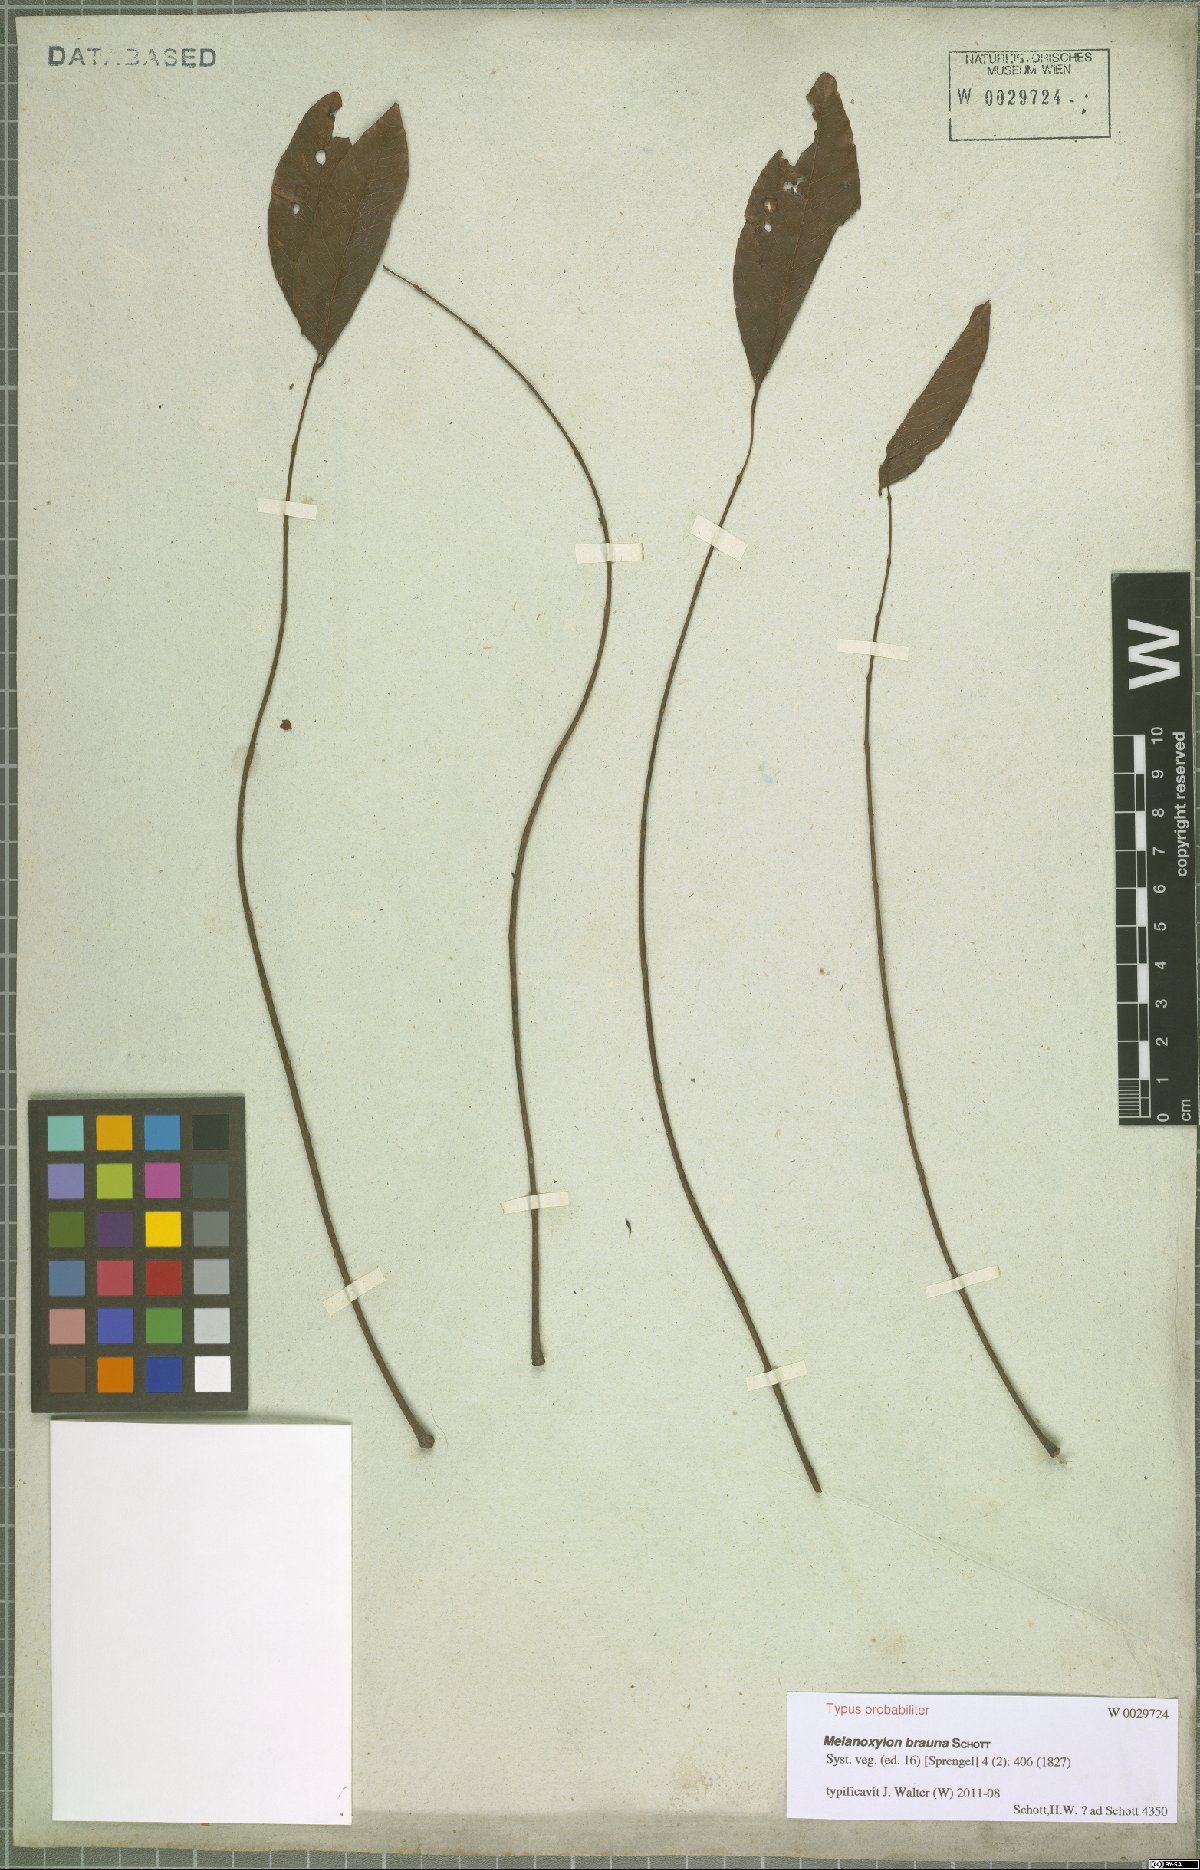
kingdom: Plantae
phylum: Tracheophyta
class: Magnoliopsida
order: Fabales
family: Fabaceae
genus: Melanoxylon
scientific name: Melanoxylon brauna
